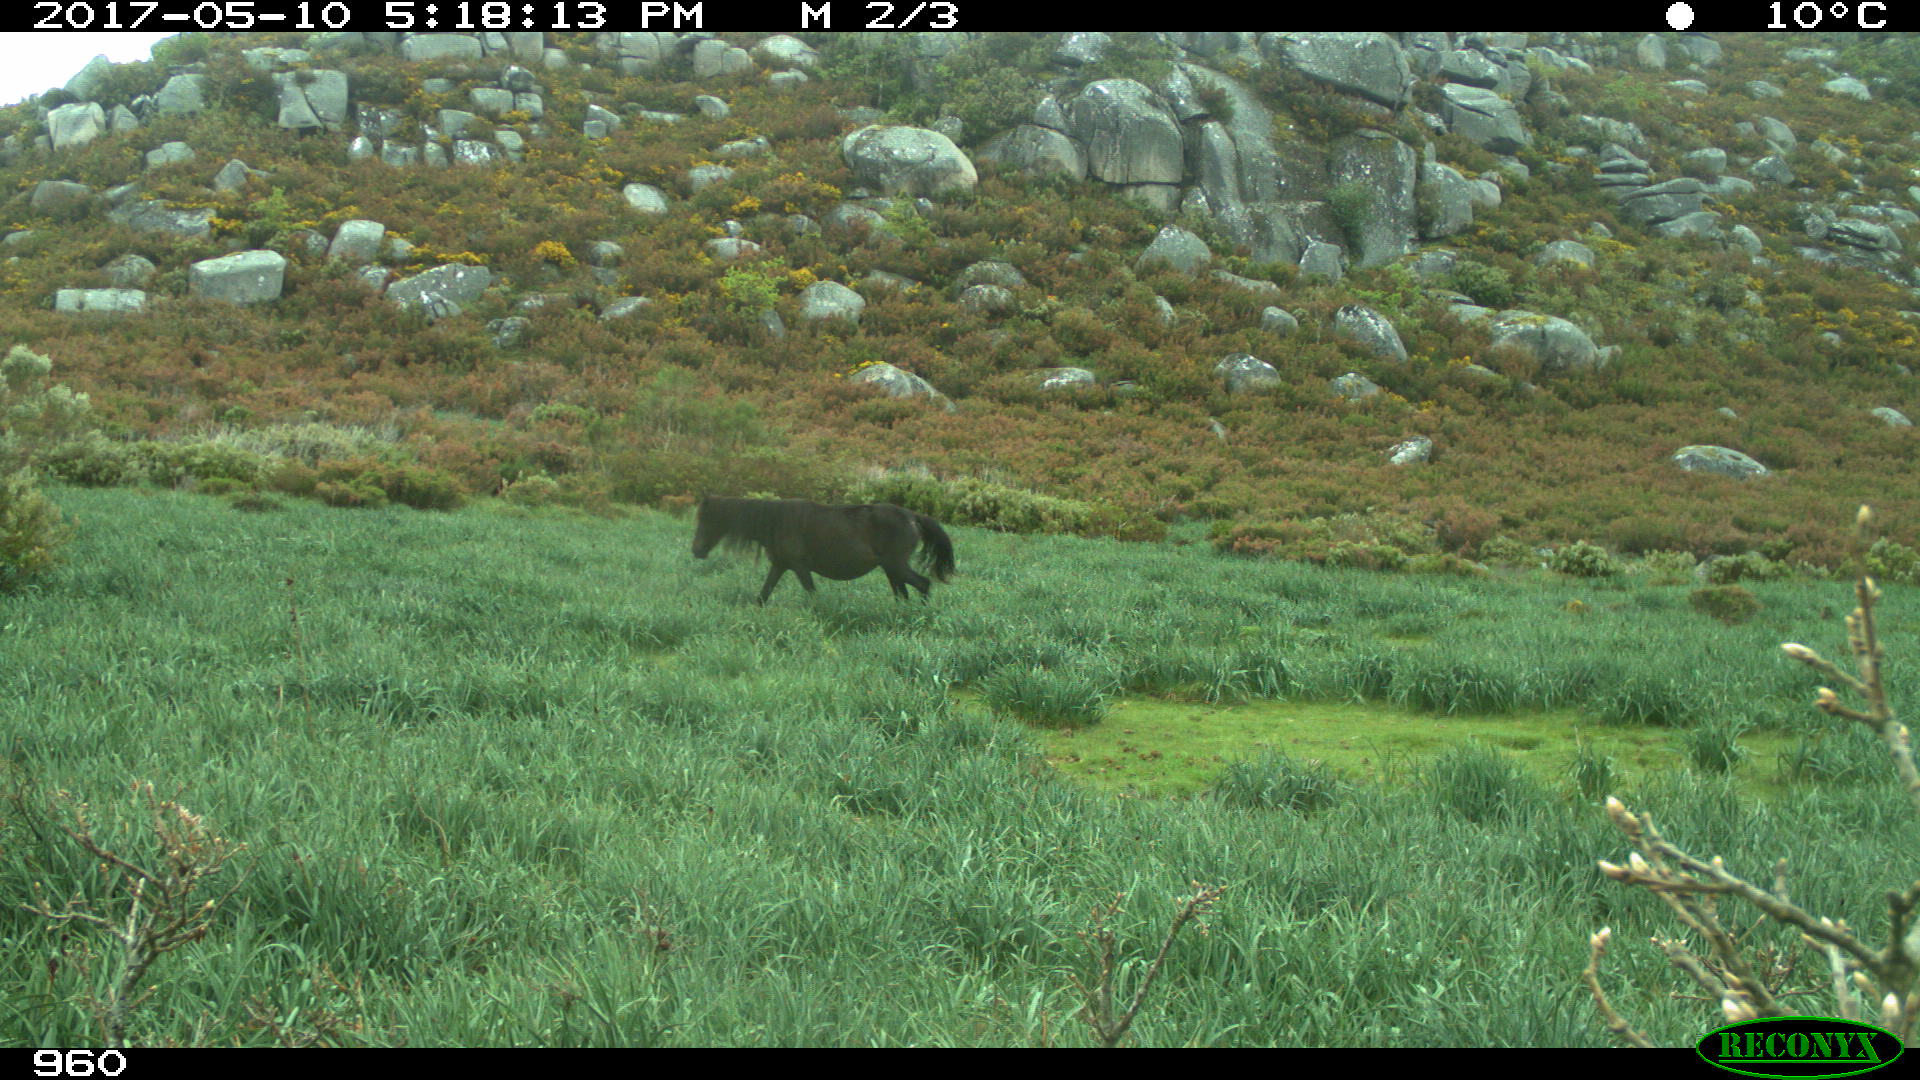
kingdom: Animalia
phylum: Chordata
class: Mammalia
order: Perissodactyla
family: Equidae
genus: Equus
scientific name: Equus caballus
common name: Horse
